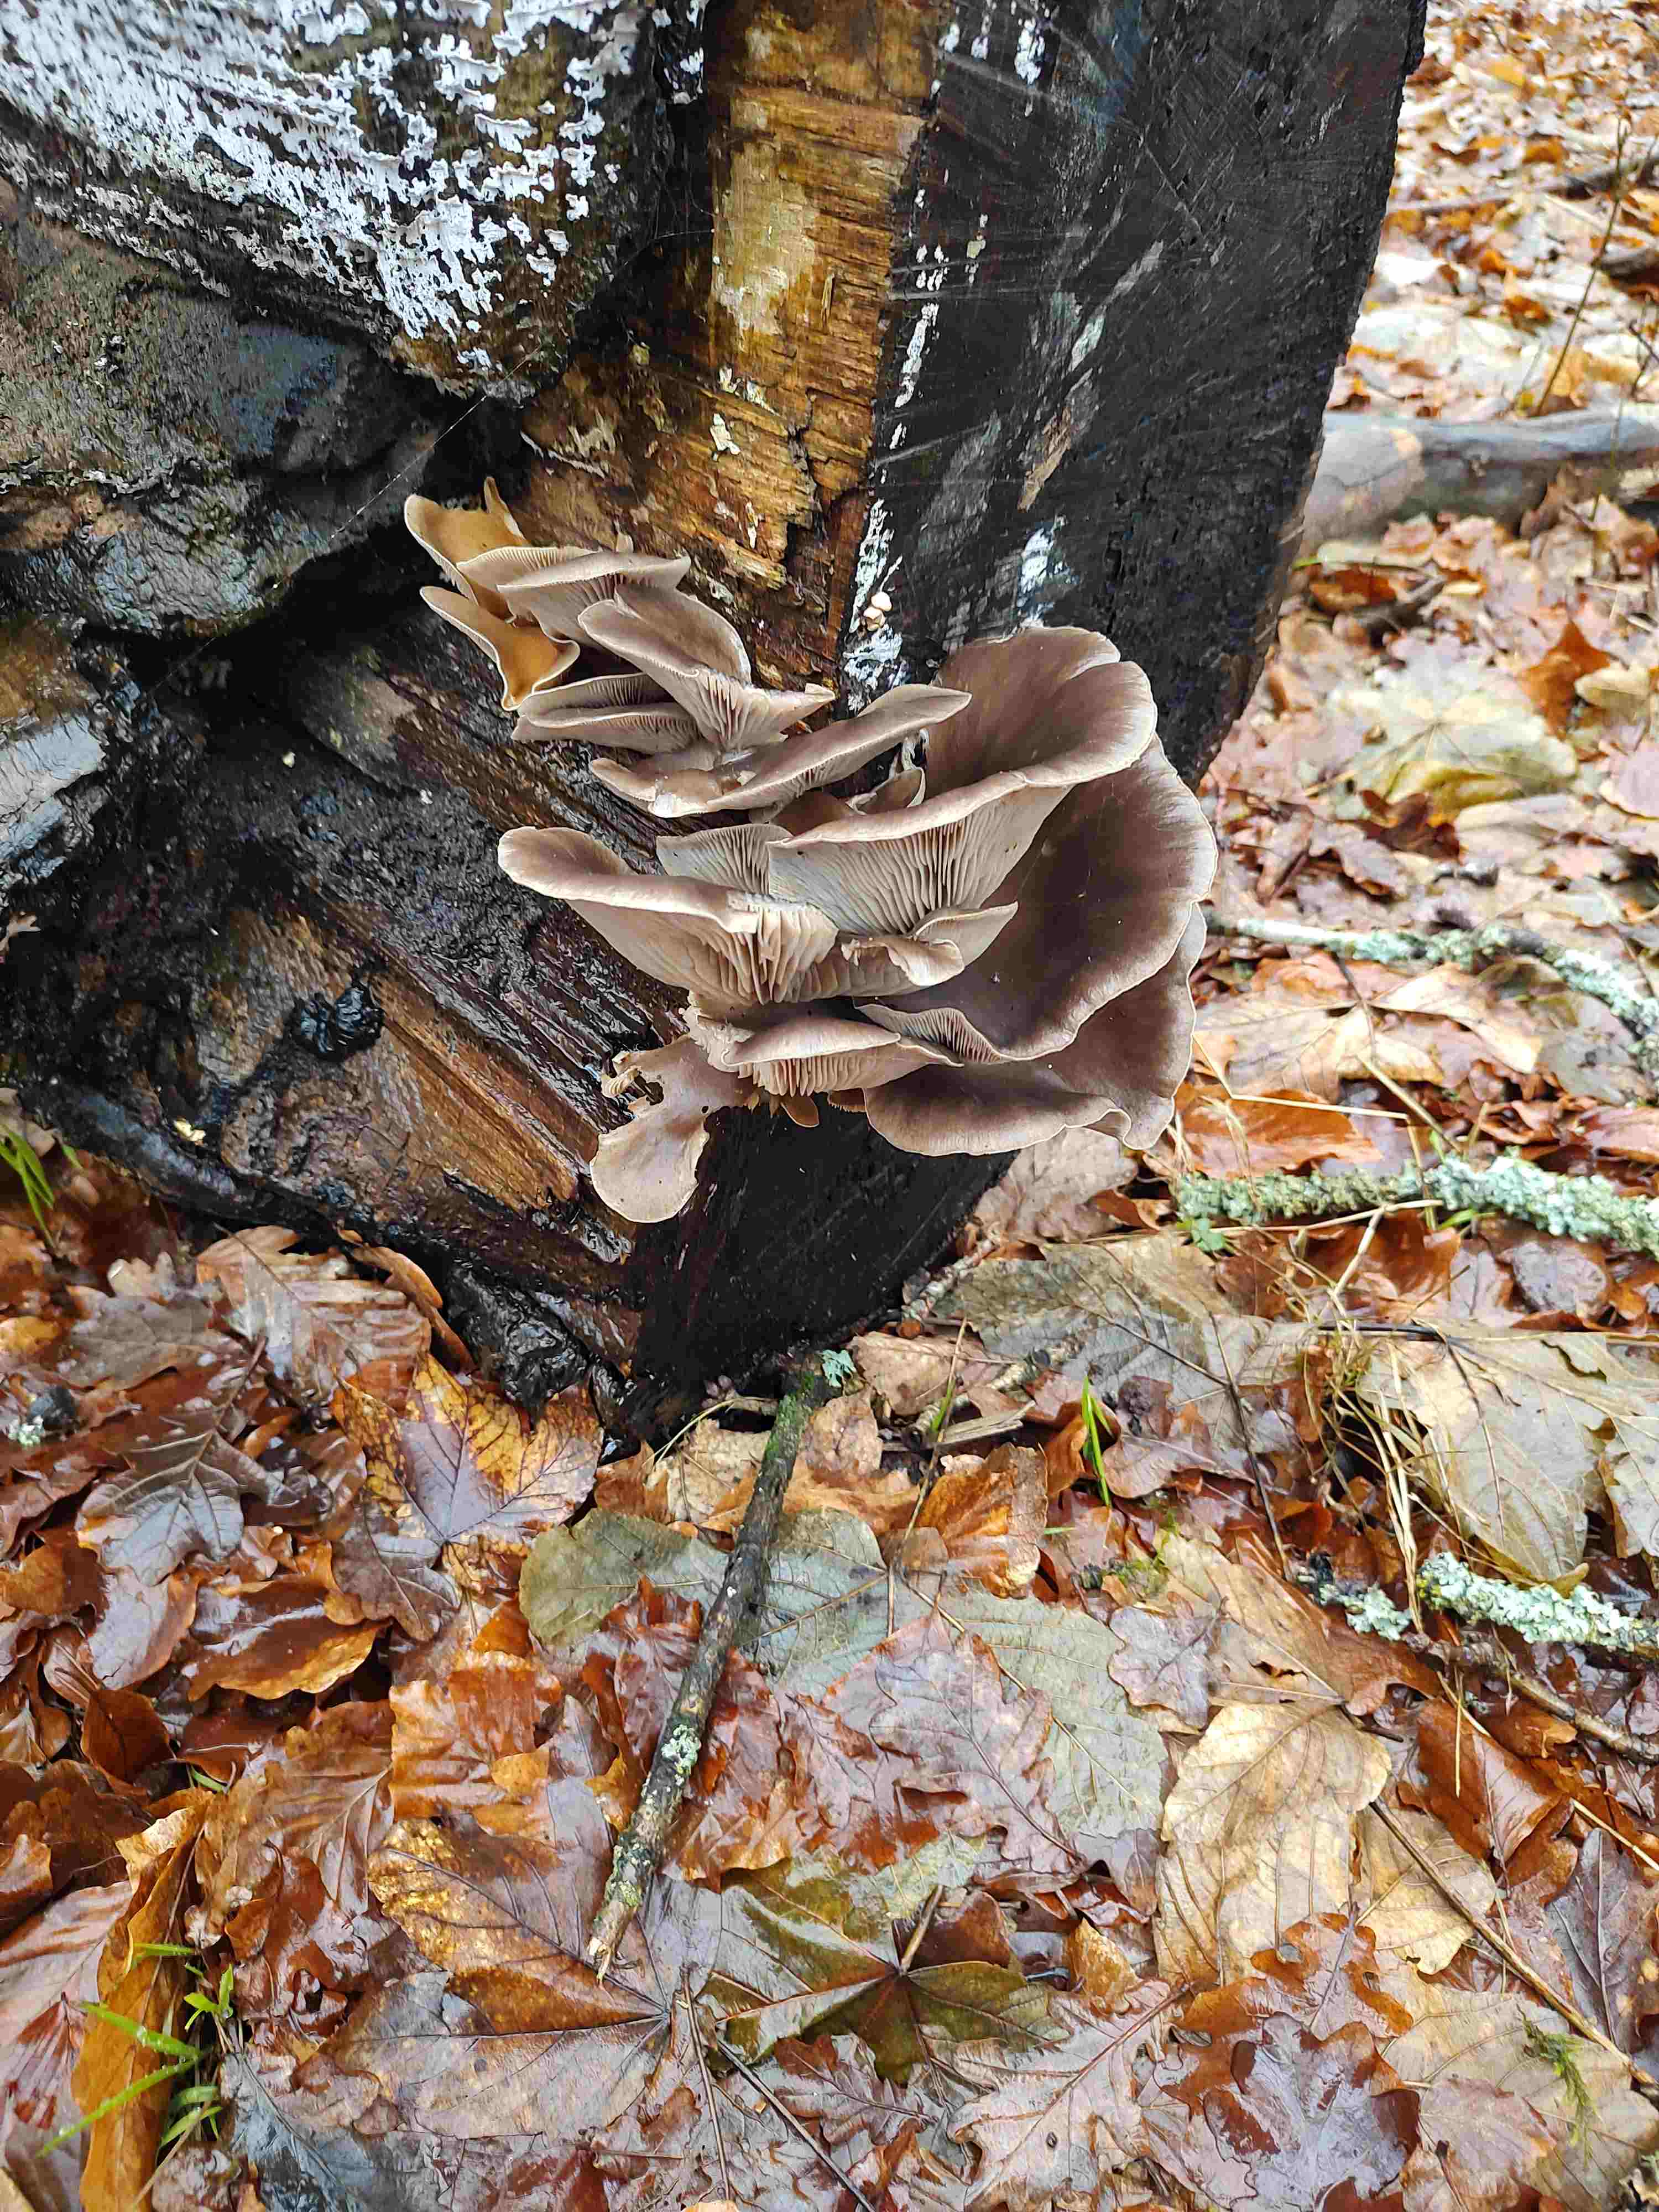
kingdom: Fungi
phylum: Basidiomycota
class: Agaricomycetes
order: Agaricales
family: Pleurotaceae
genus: Pleurotus
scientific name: Pleurotus ostreatus
